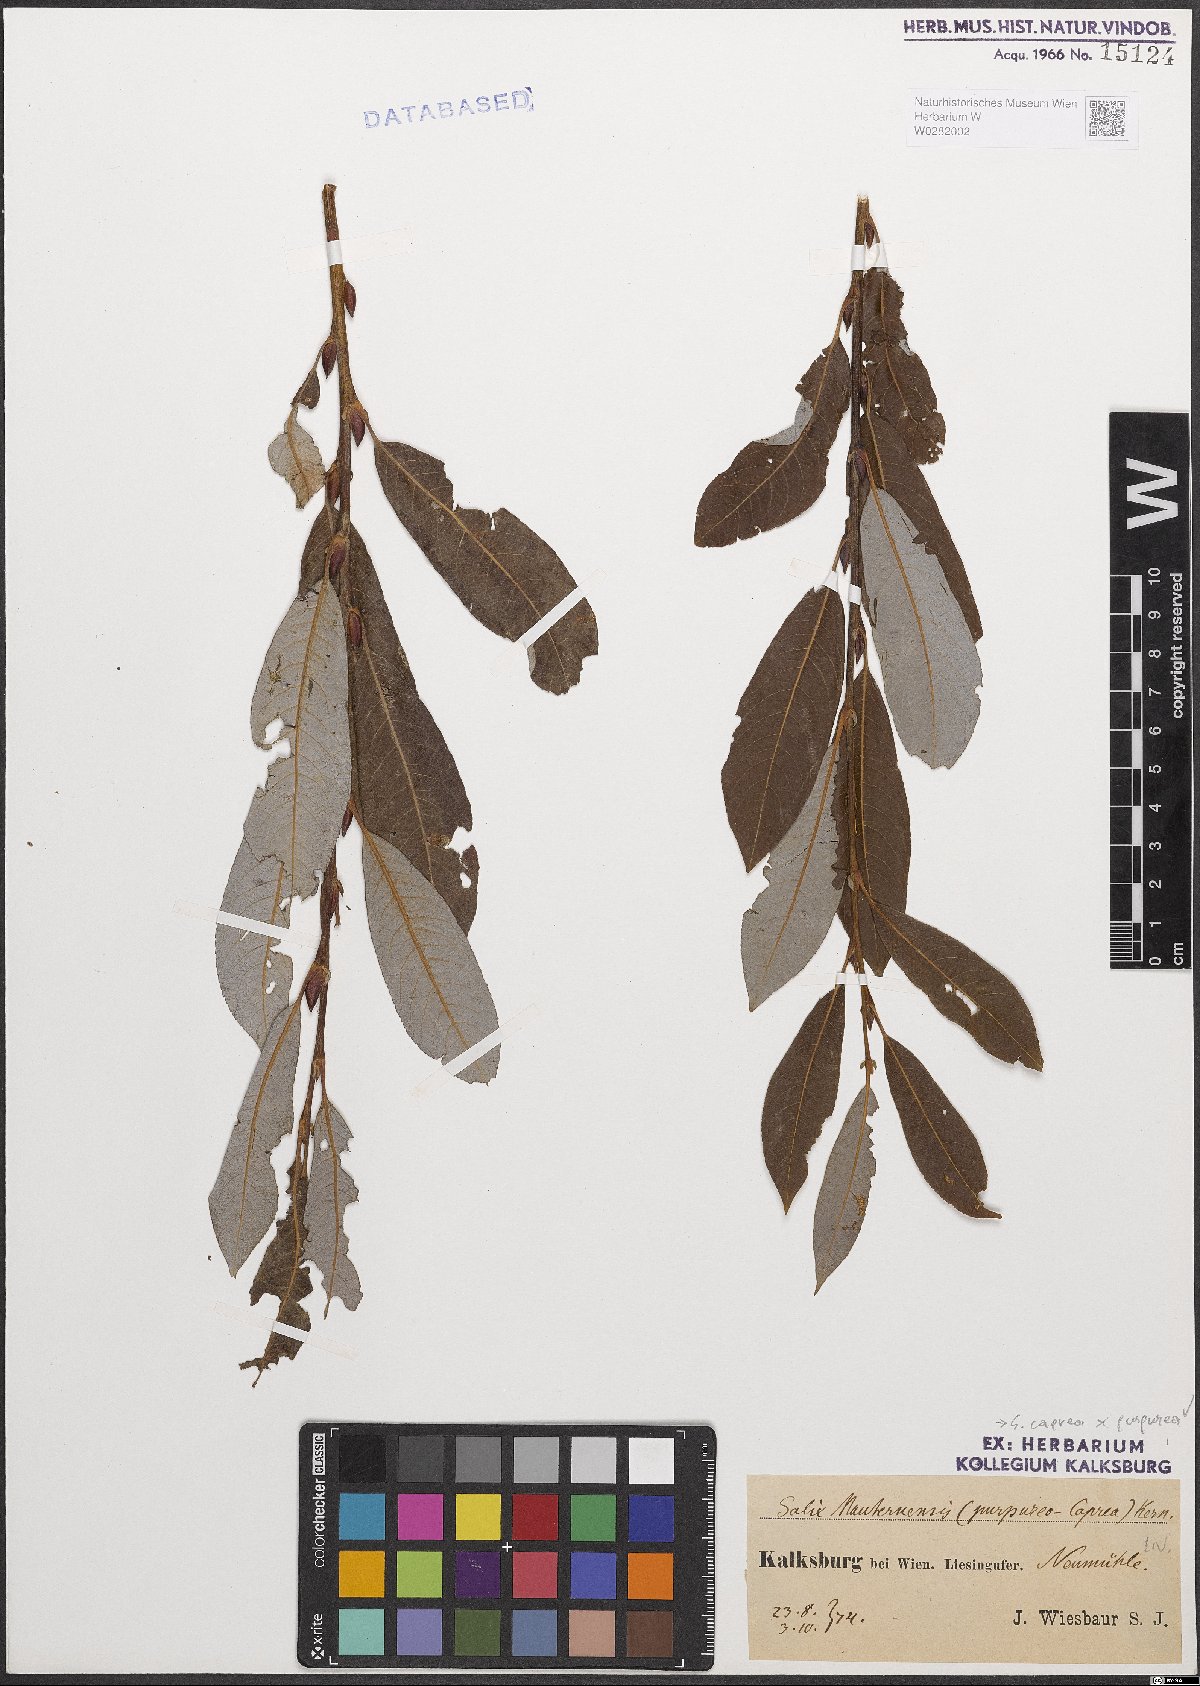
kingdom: Plantae
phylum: Tracheophyta
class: Magnoliopsida
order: Malpighiales
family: Salicaceae
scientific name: Salicaceae
